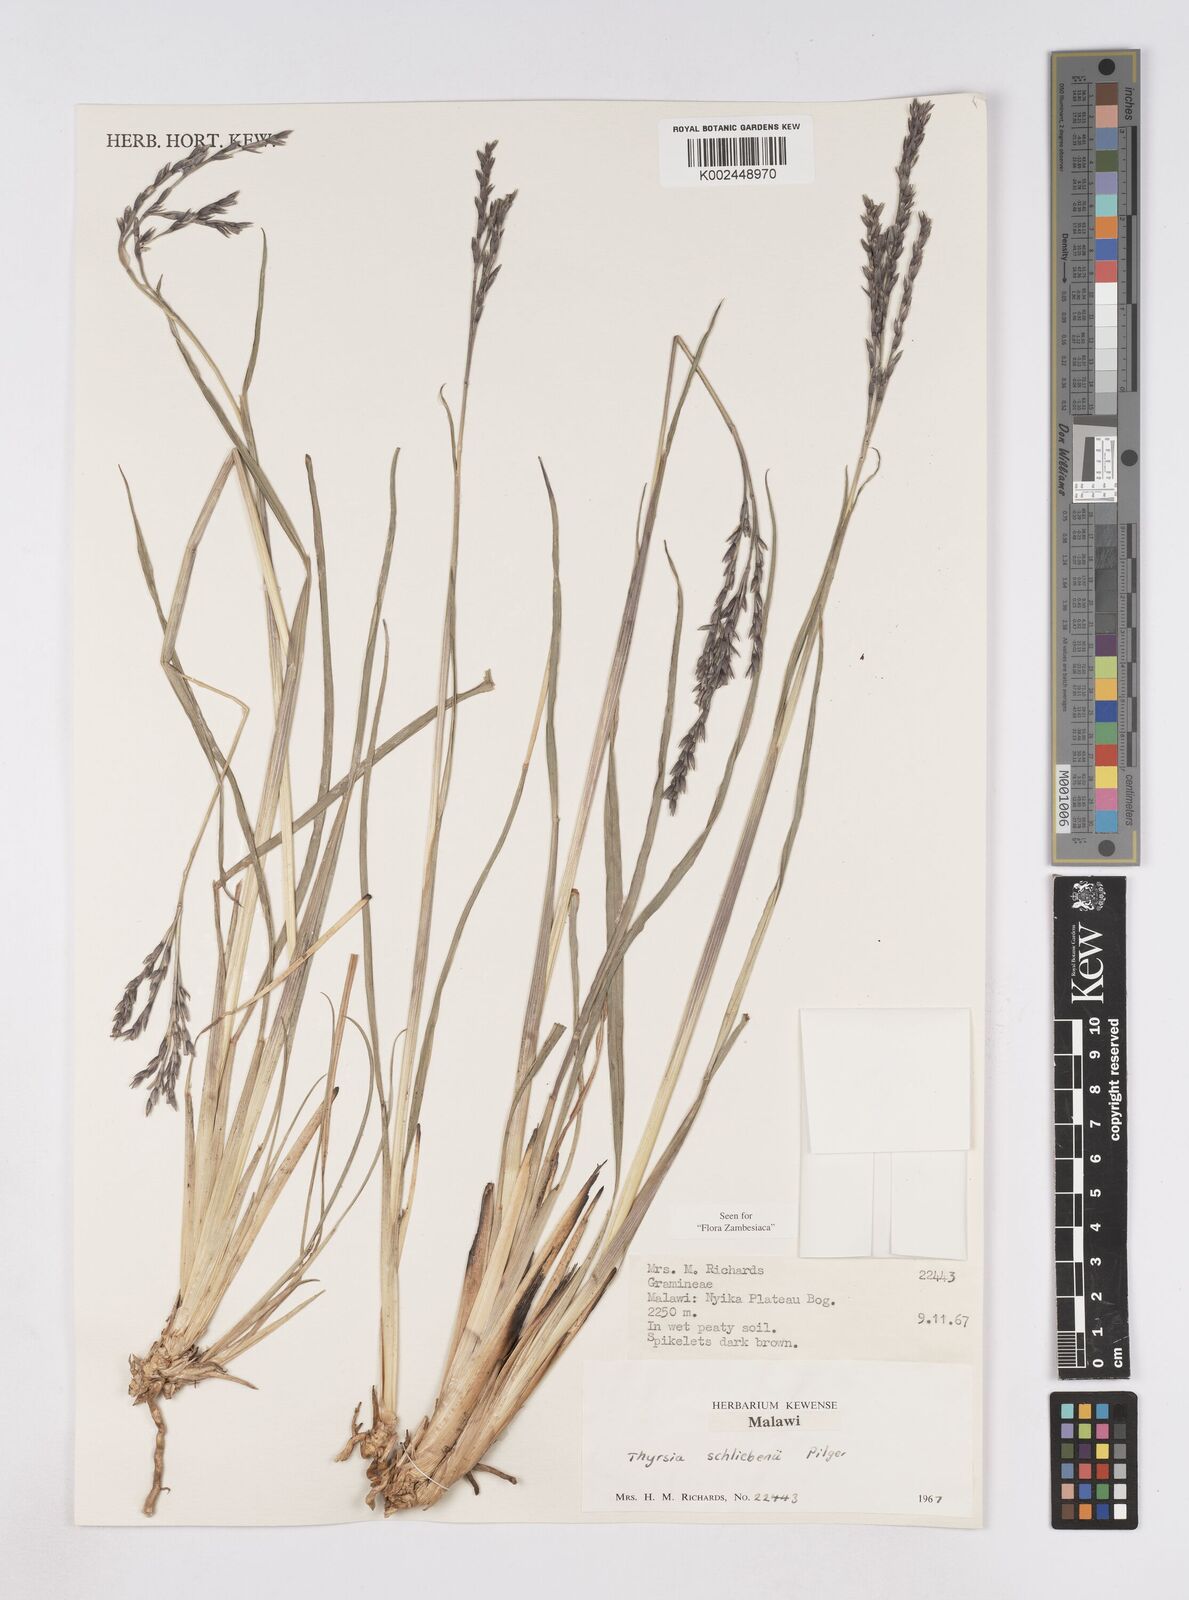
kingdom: Plantae
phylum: Tracheophyta
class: Liliopsida
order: Poales
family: Poaceae
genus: Thyrsia
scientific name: Thyrsia schliebenii
